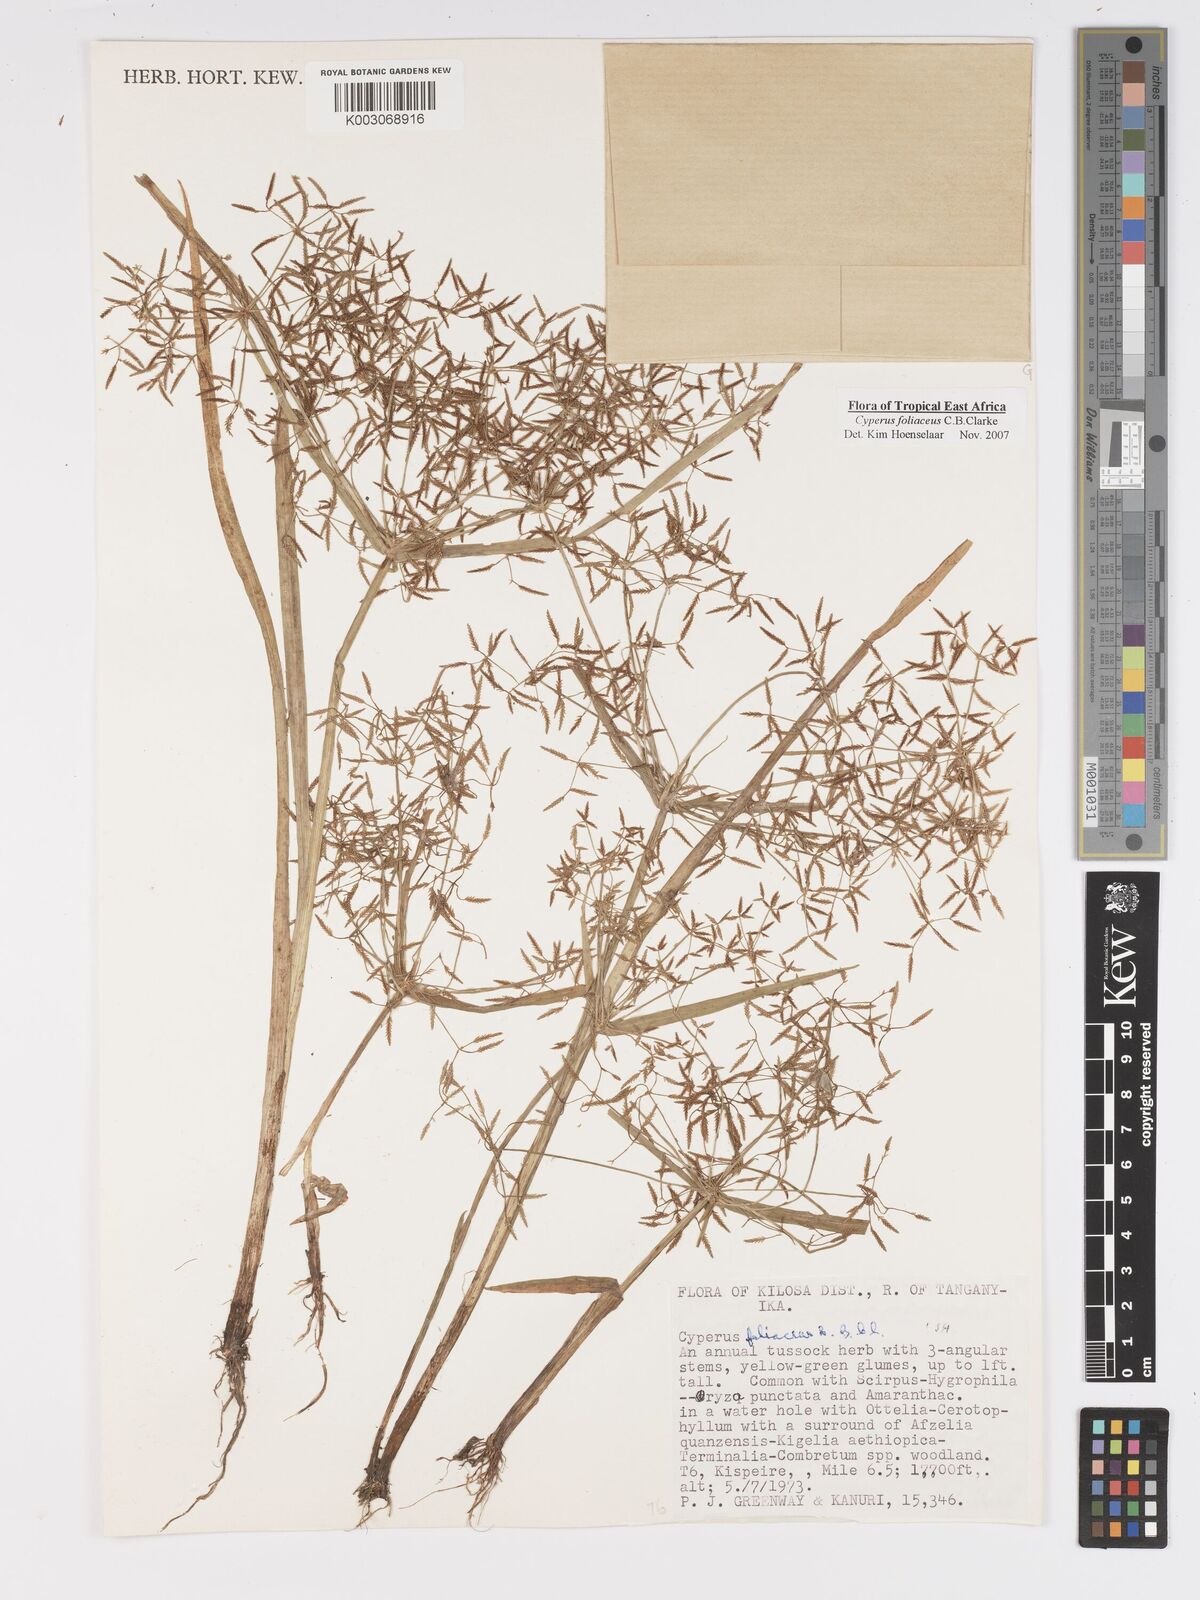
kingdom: Plantae
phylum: Tracheophyta
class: Liliopsida
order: Poales
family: Cyperaceae
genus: Cyperus
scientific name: Cyperus foliaceus
